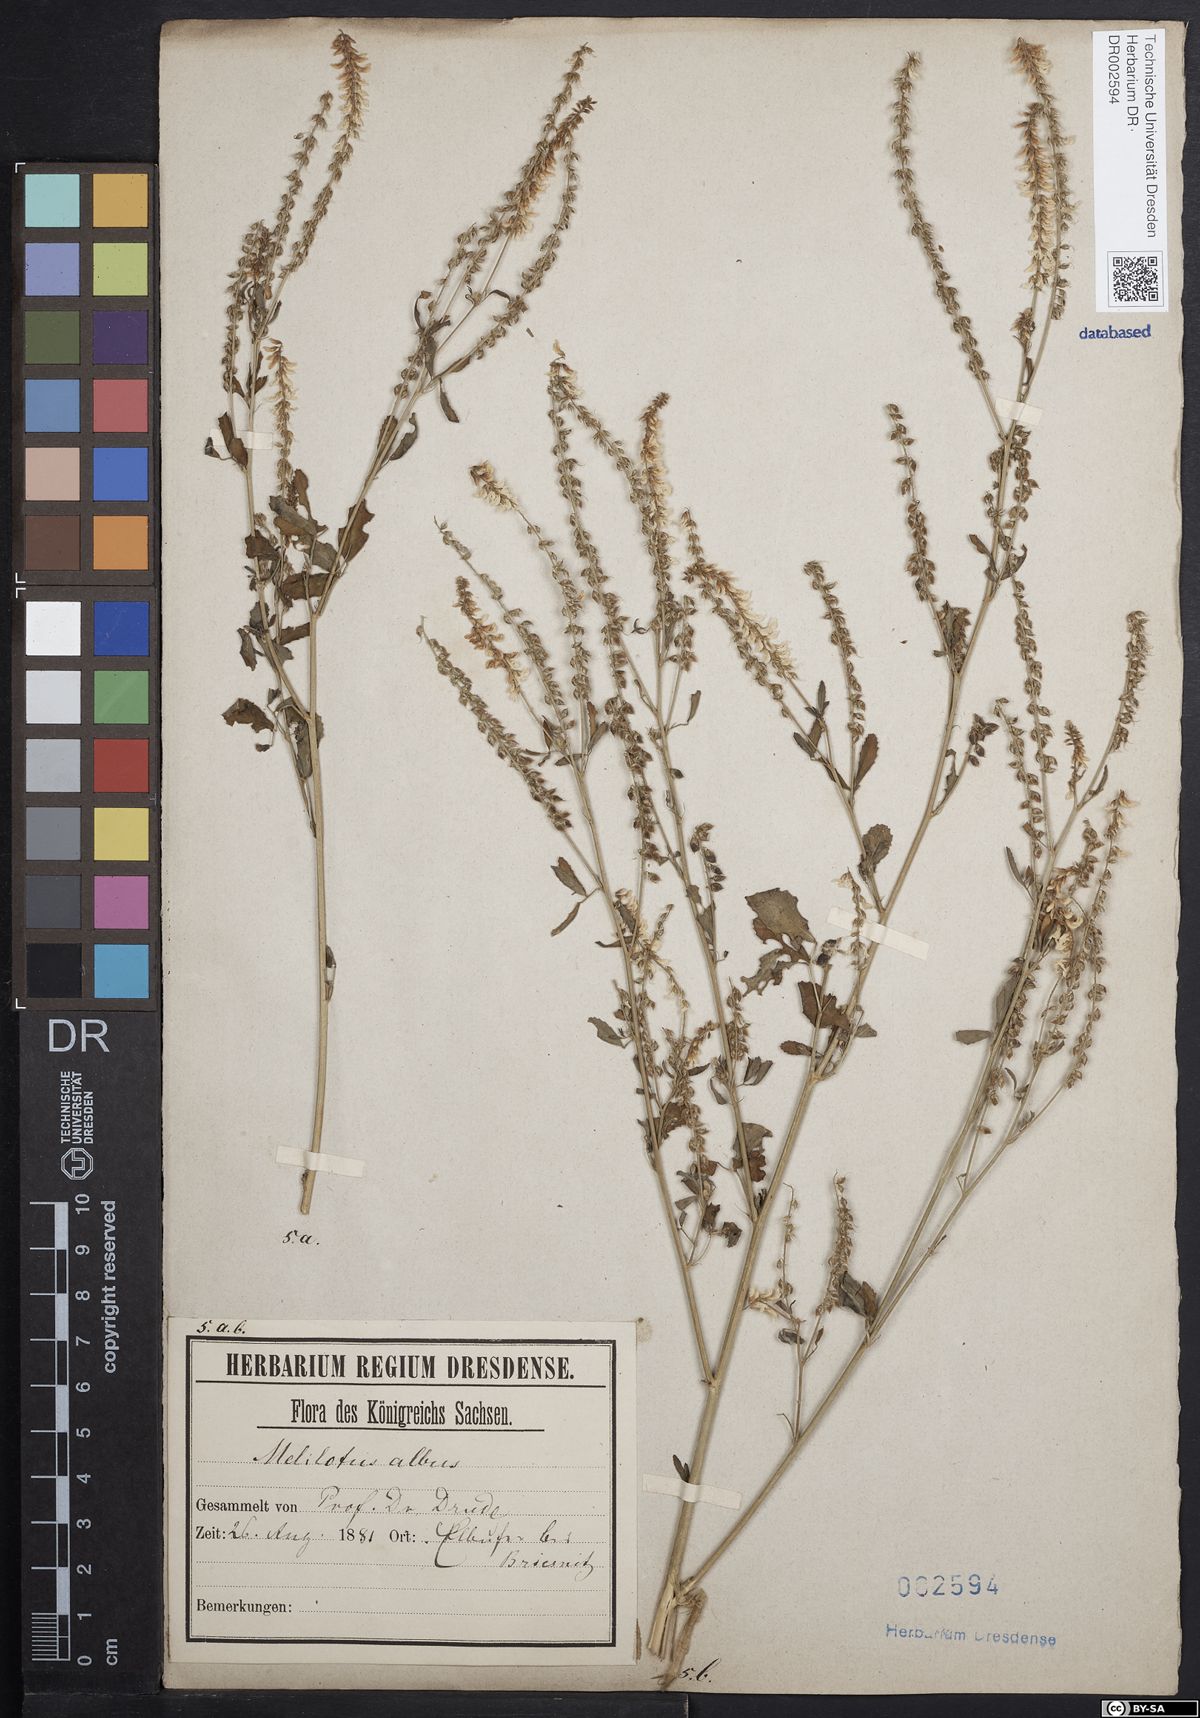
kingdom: Plantae
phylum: Tracheophyta
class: Magnoliopsida
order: Fabales
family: Fabaceae
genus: Melilotus
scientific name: Melilotus albus
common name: White melilot
